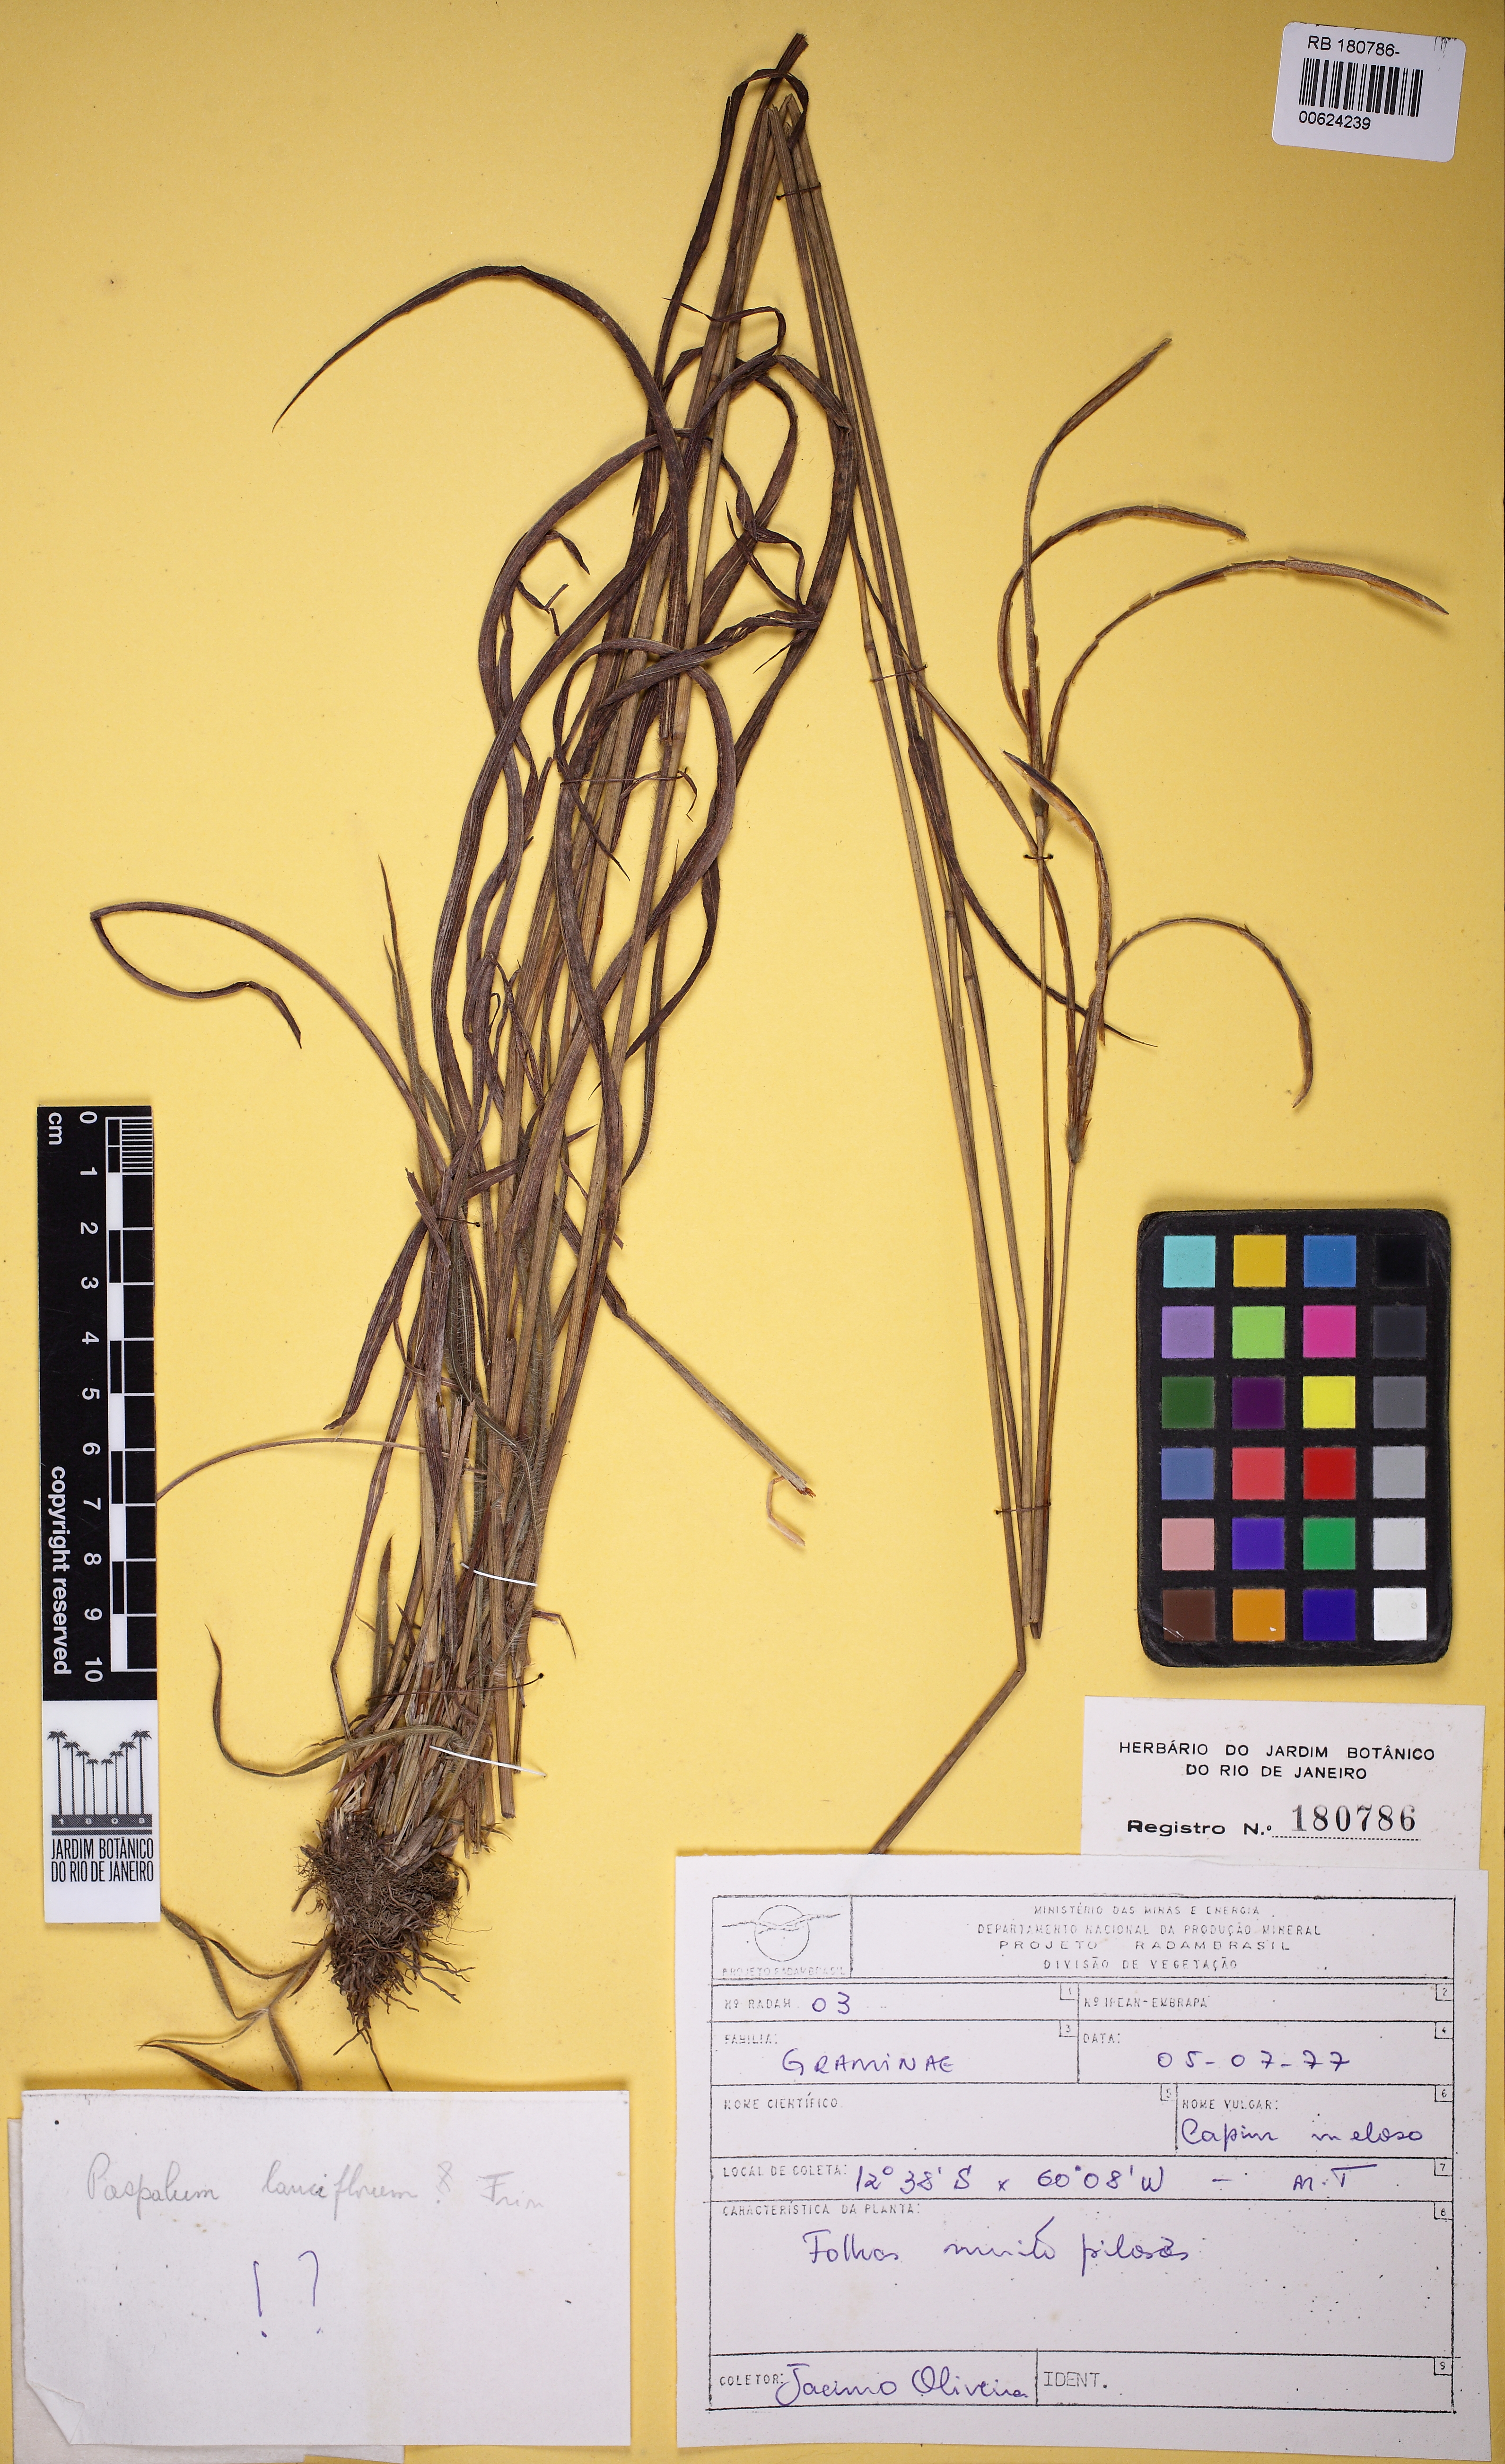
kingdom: Plantae
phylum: Tracheophyta
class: Liliopsida
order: Poales
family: Poaceae
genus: Paspalum
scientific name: Paspalum lanciflorum
